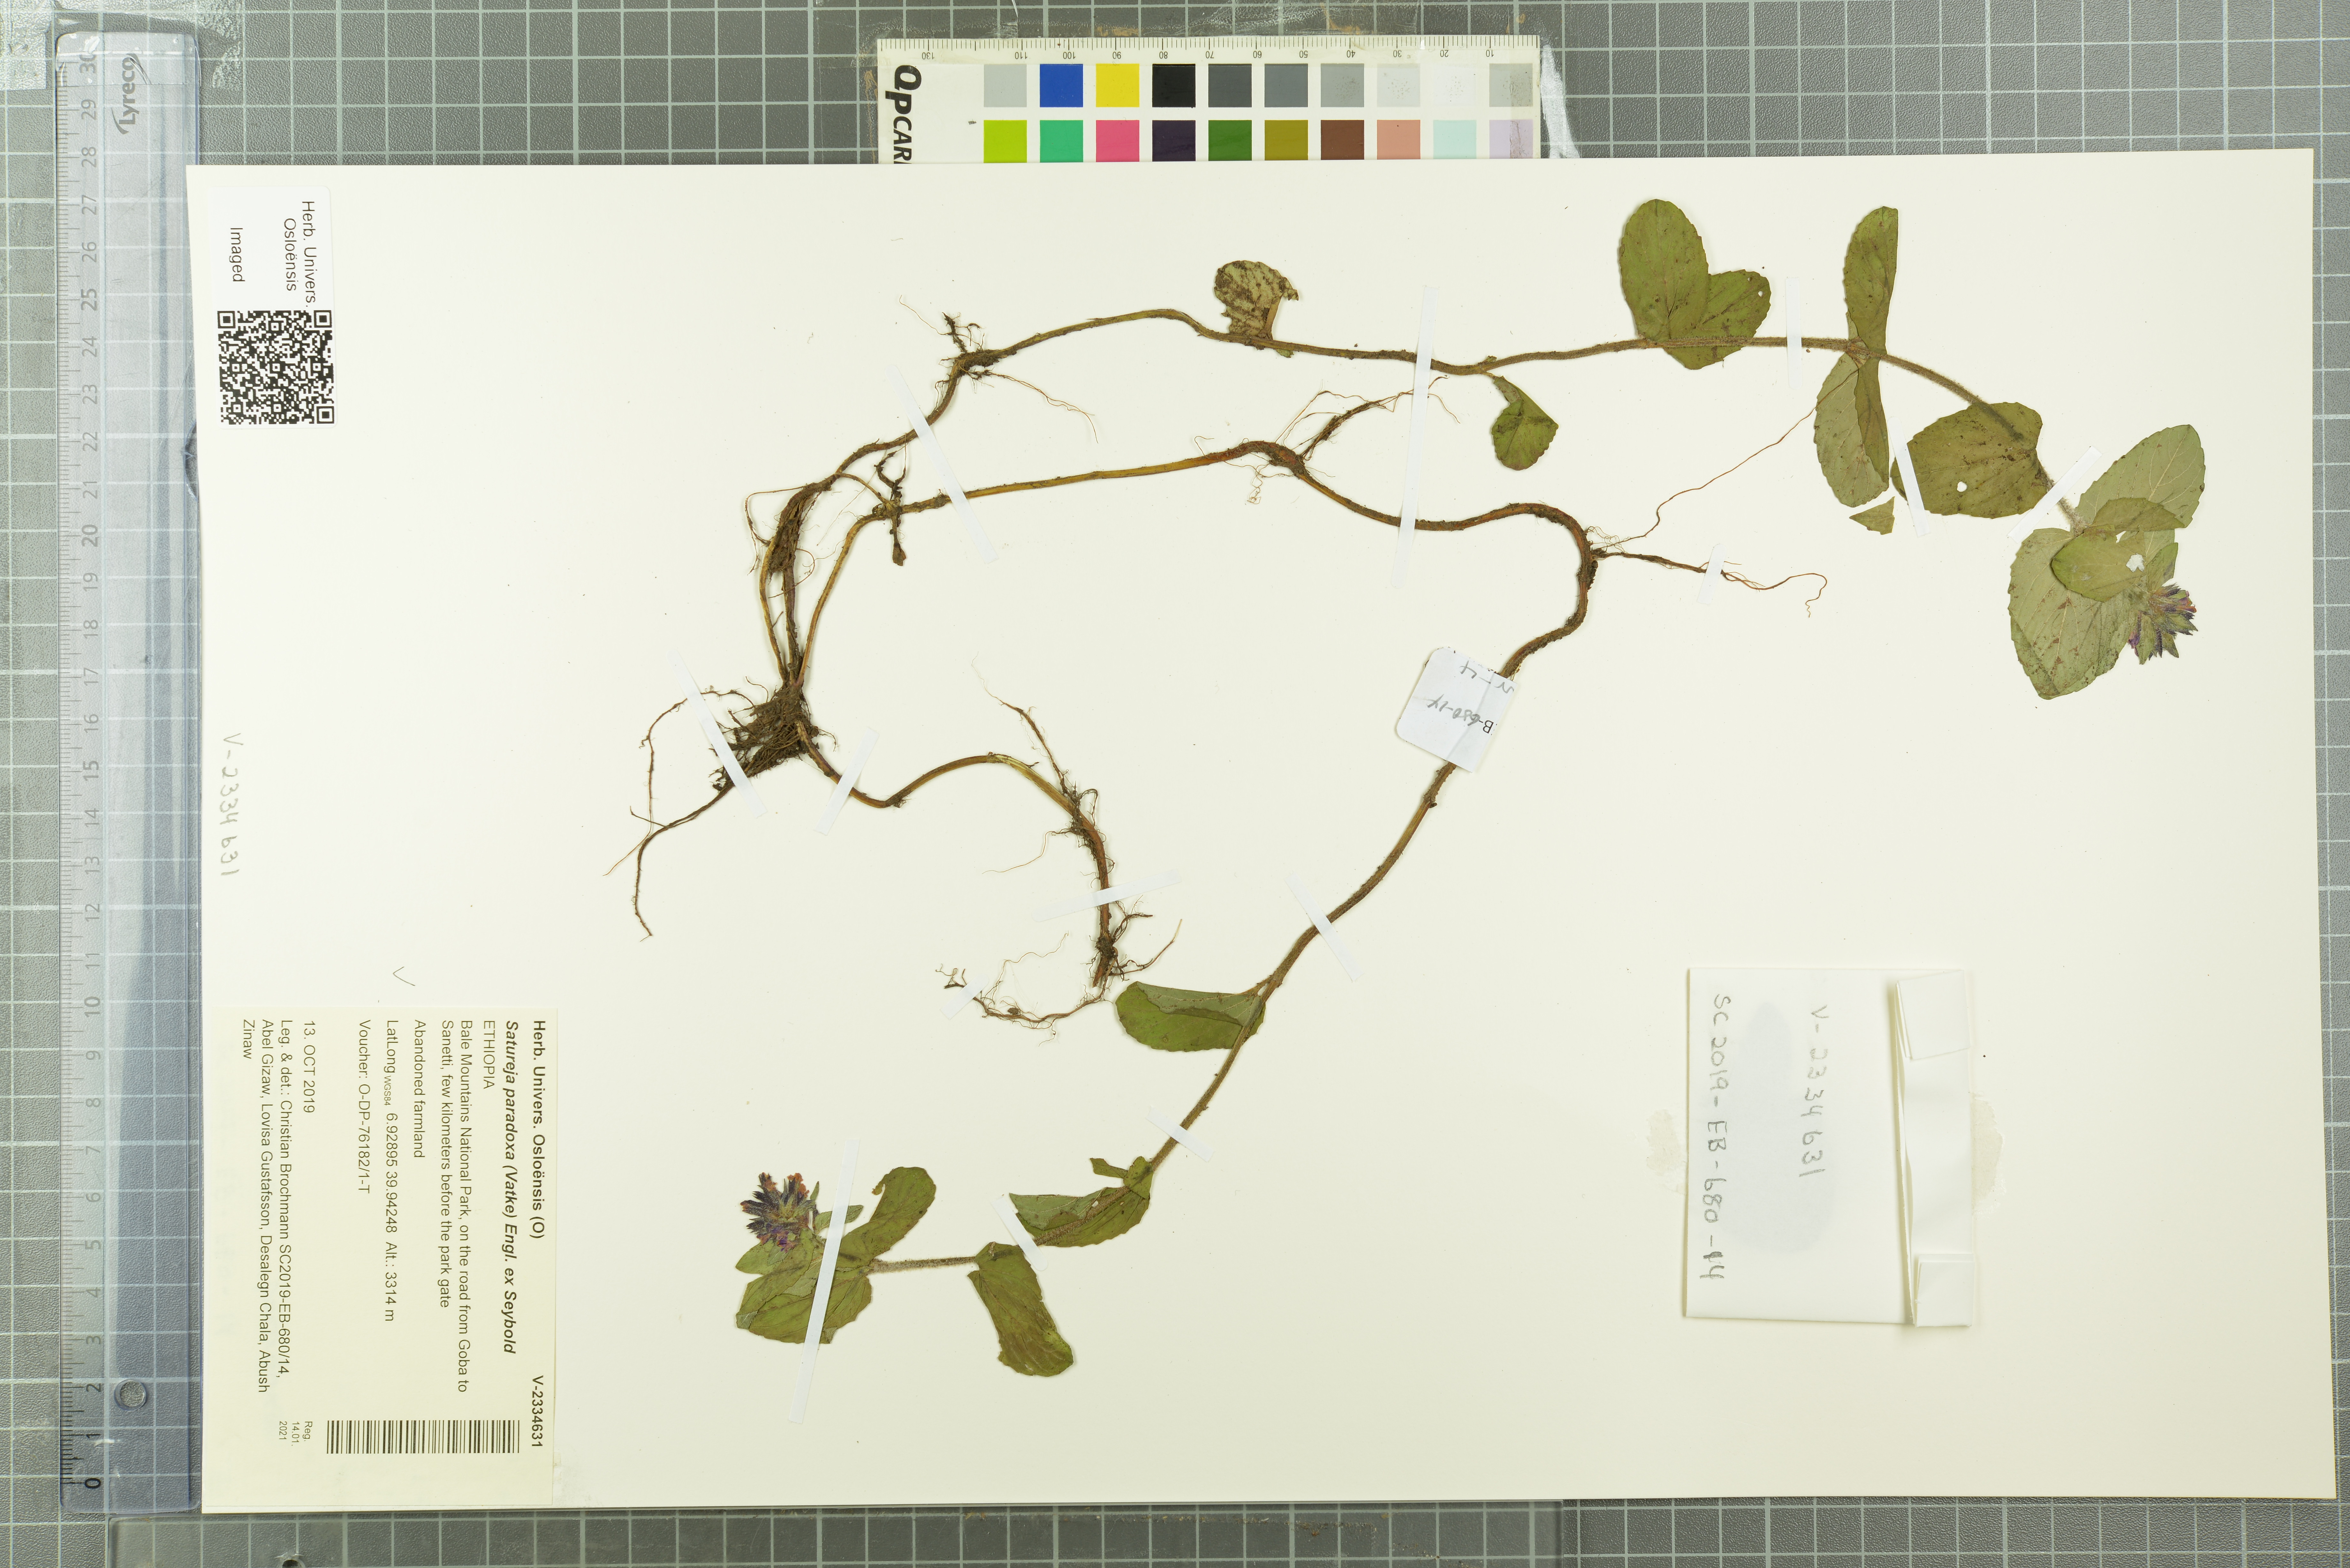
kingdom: Plantae
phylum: Tracheophyta
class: Magnoliopsida
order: Lamiales
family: Lamiaceae
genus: Clinopodium
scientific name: Clinopodium paradoxum
